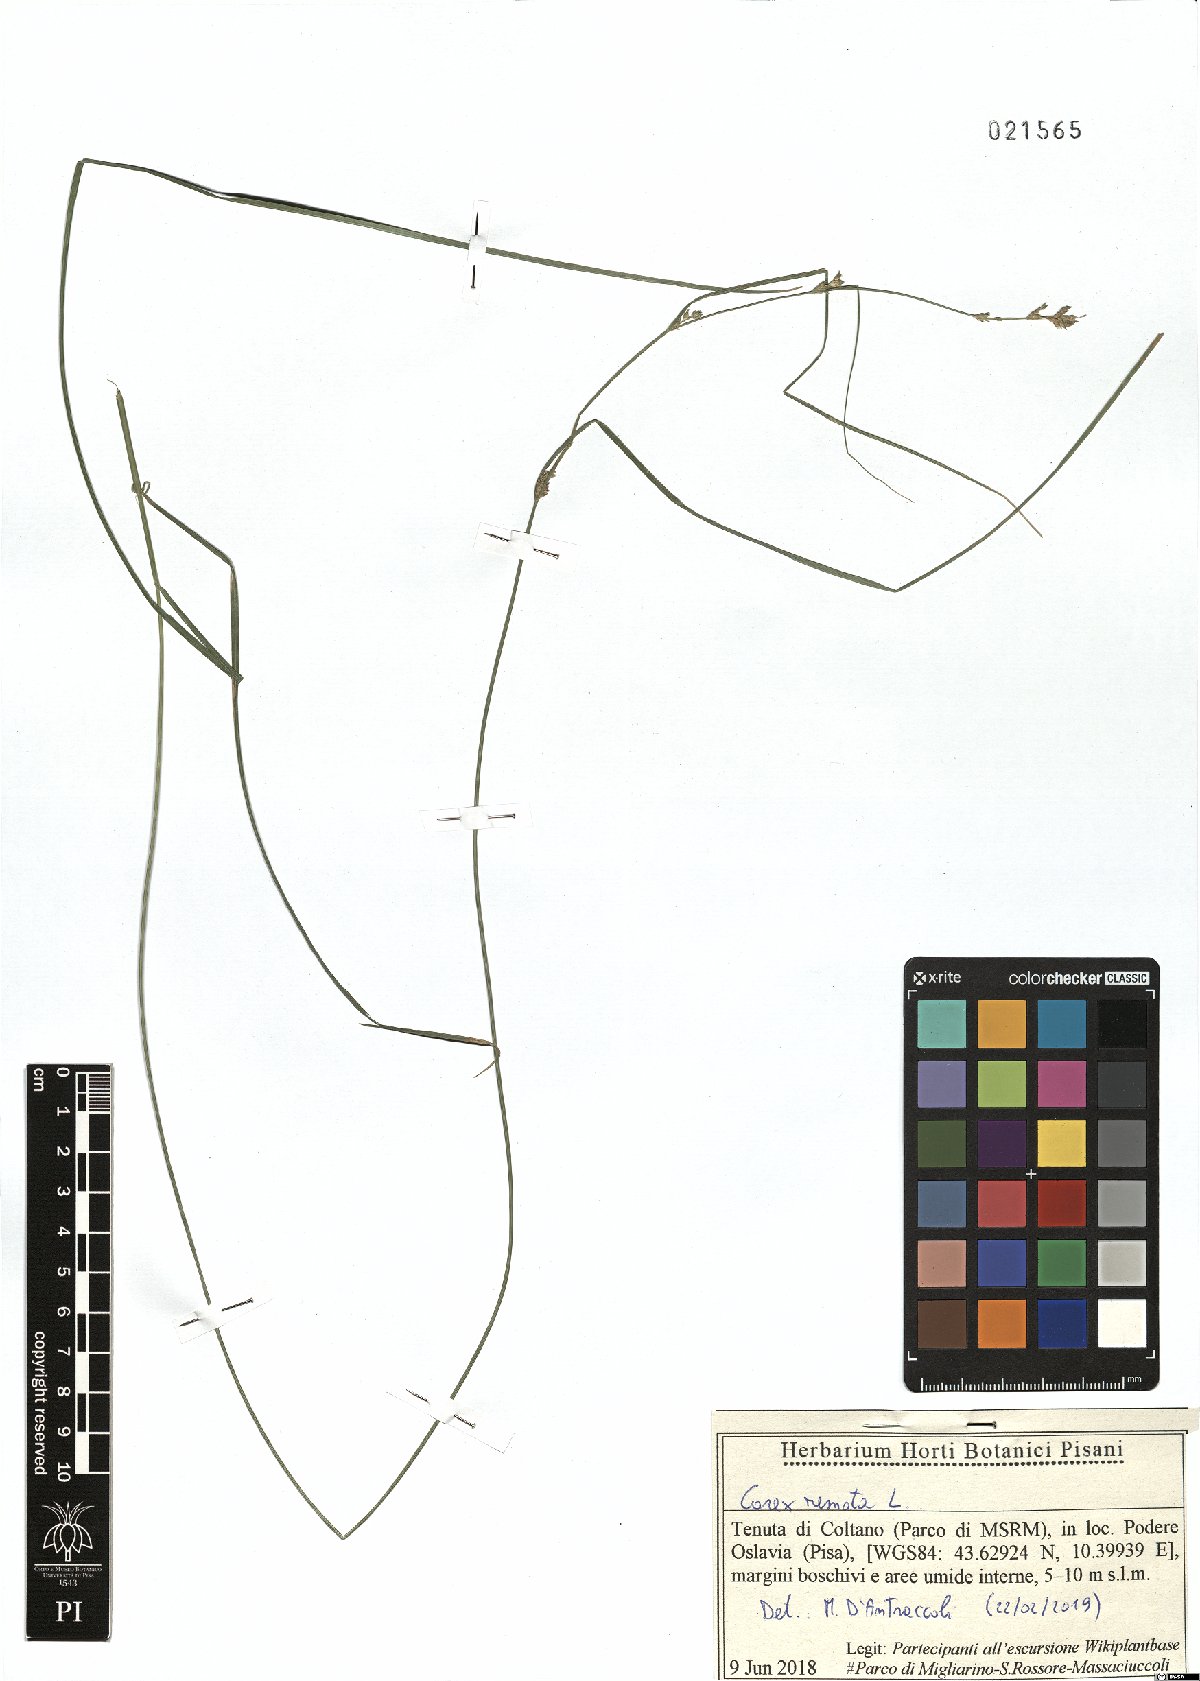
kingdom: Plantae
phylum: Tracheophyta
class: Liliopsida
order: Poales
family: Cyperaceae
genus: Carex
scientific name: Carex remota
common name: Remote sedge
